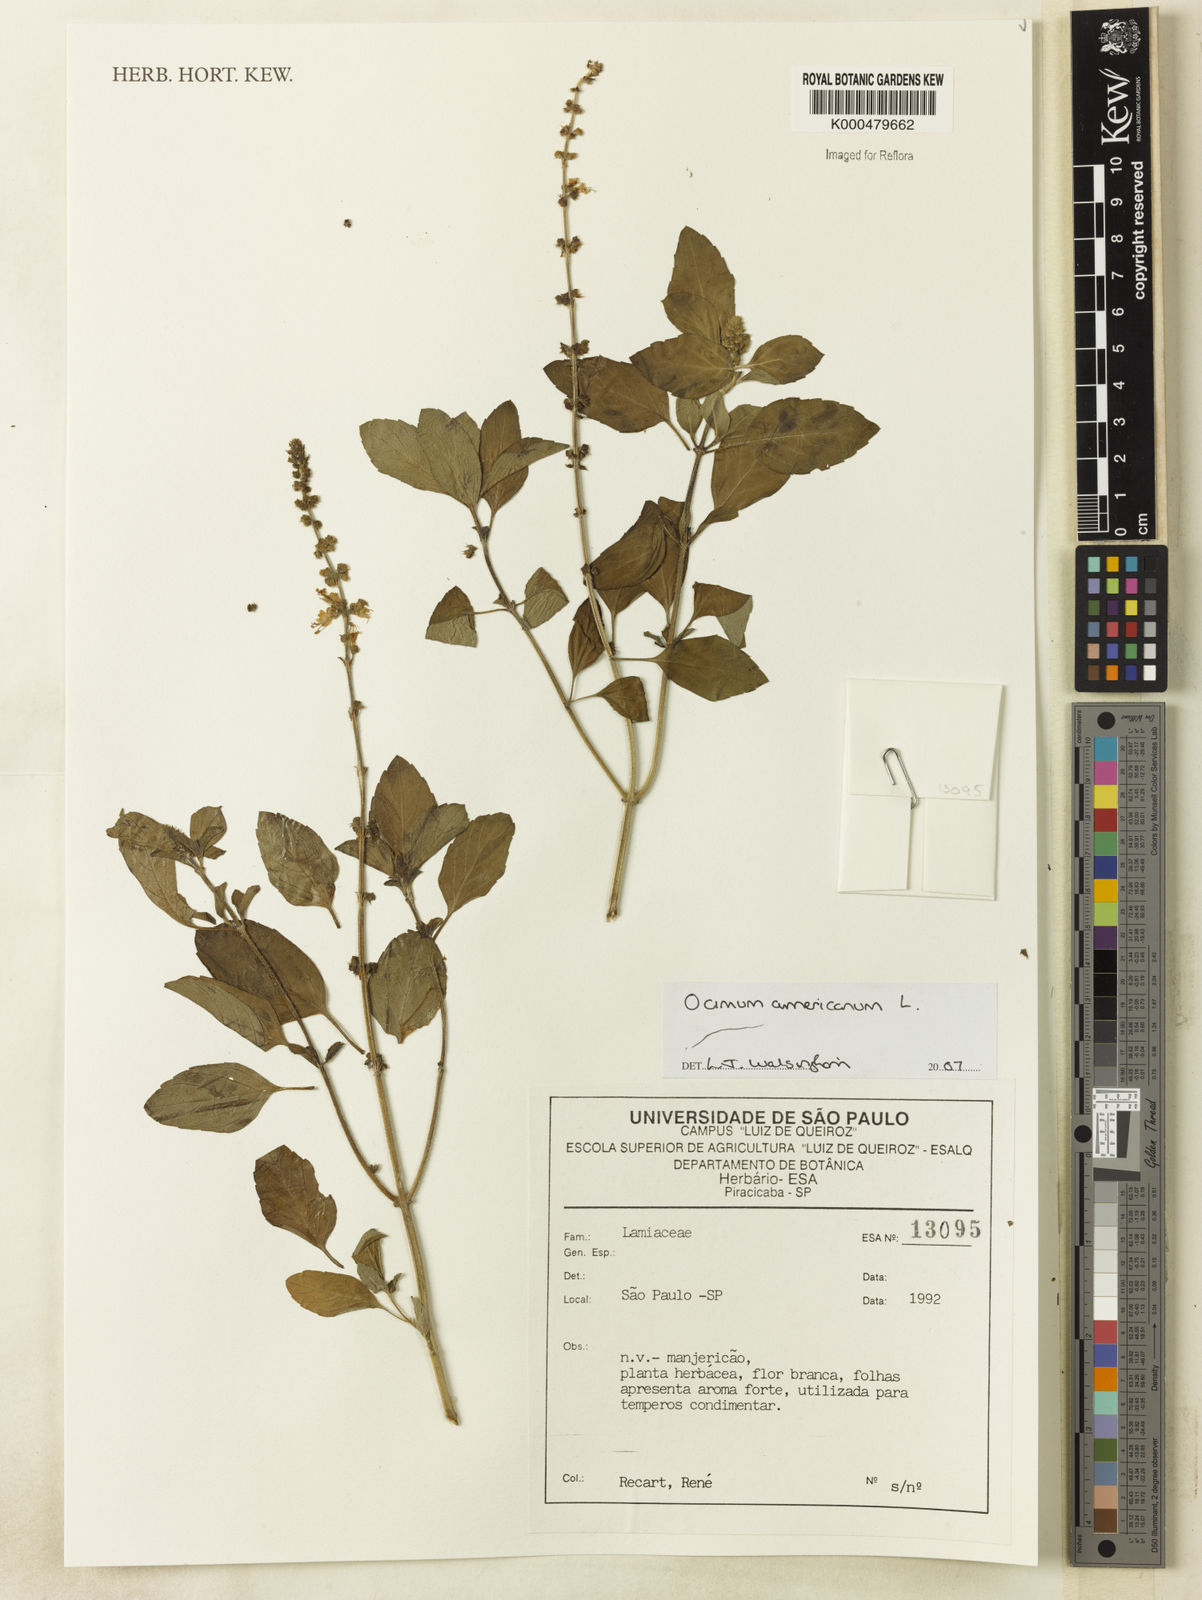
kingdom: Plantae
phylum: Tracheophyta
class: Magnoliopsida
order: Lamiales
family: Lamiaceae
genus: Ocimum
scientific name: Ocimum americanum
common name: American basil
